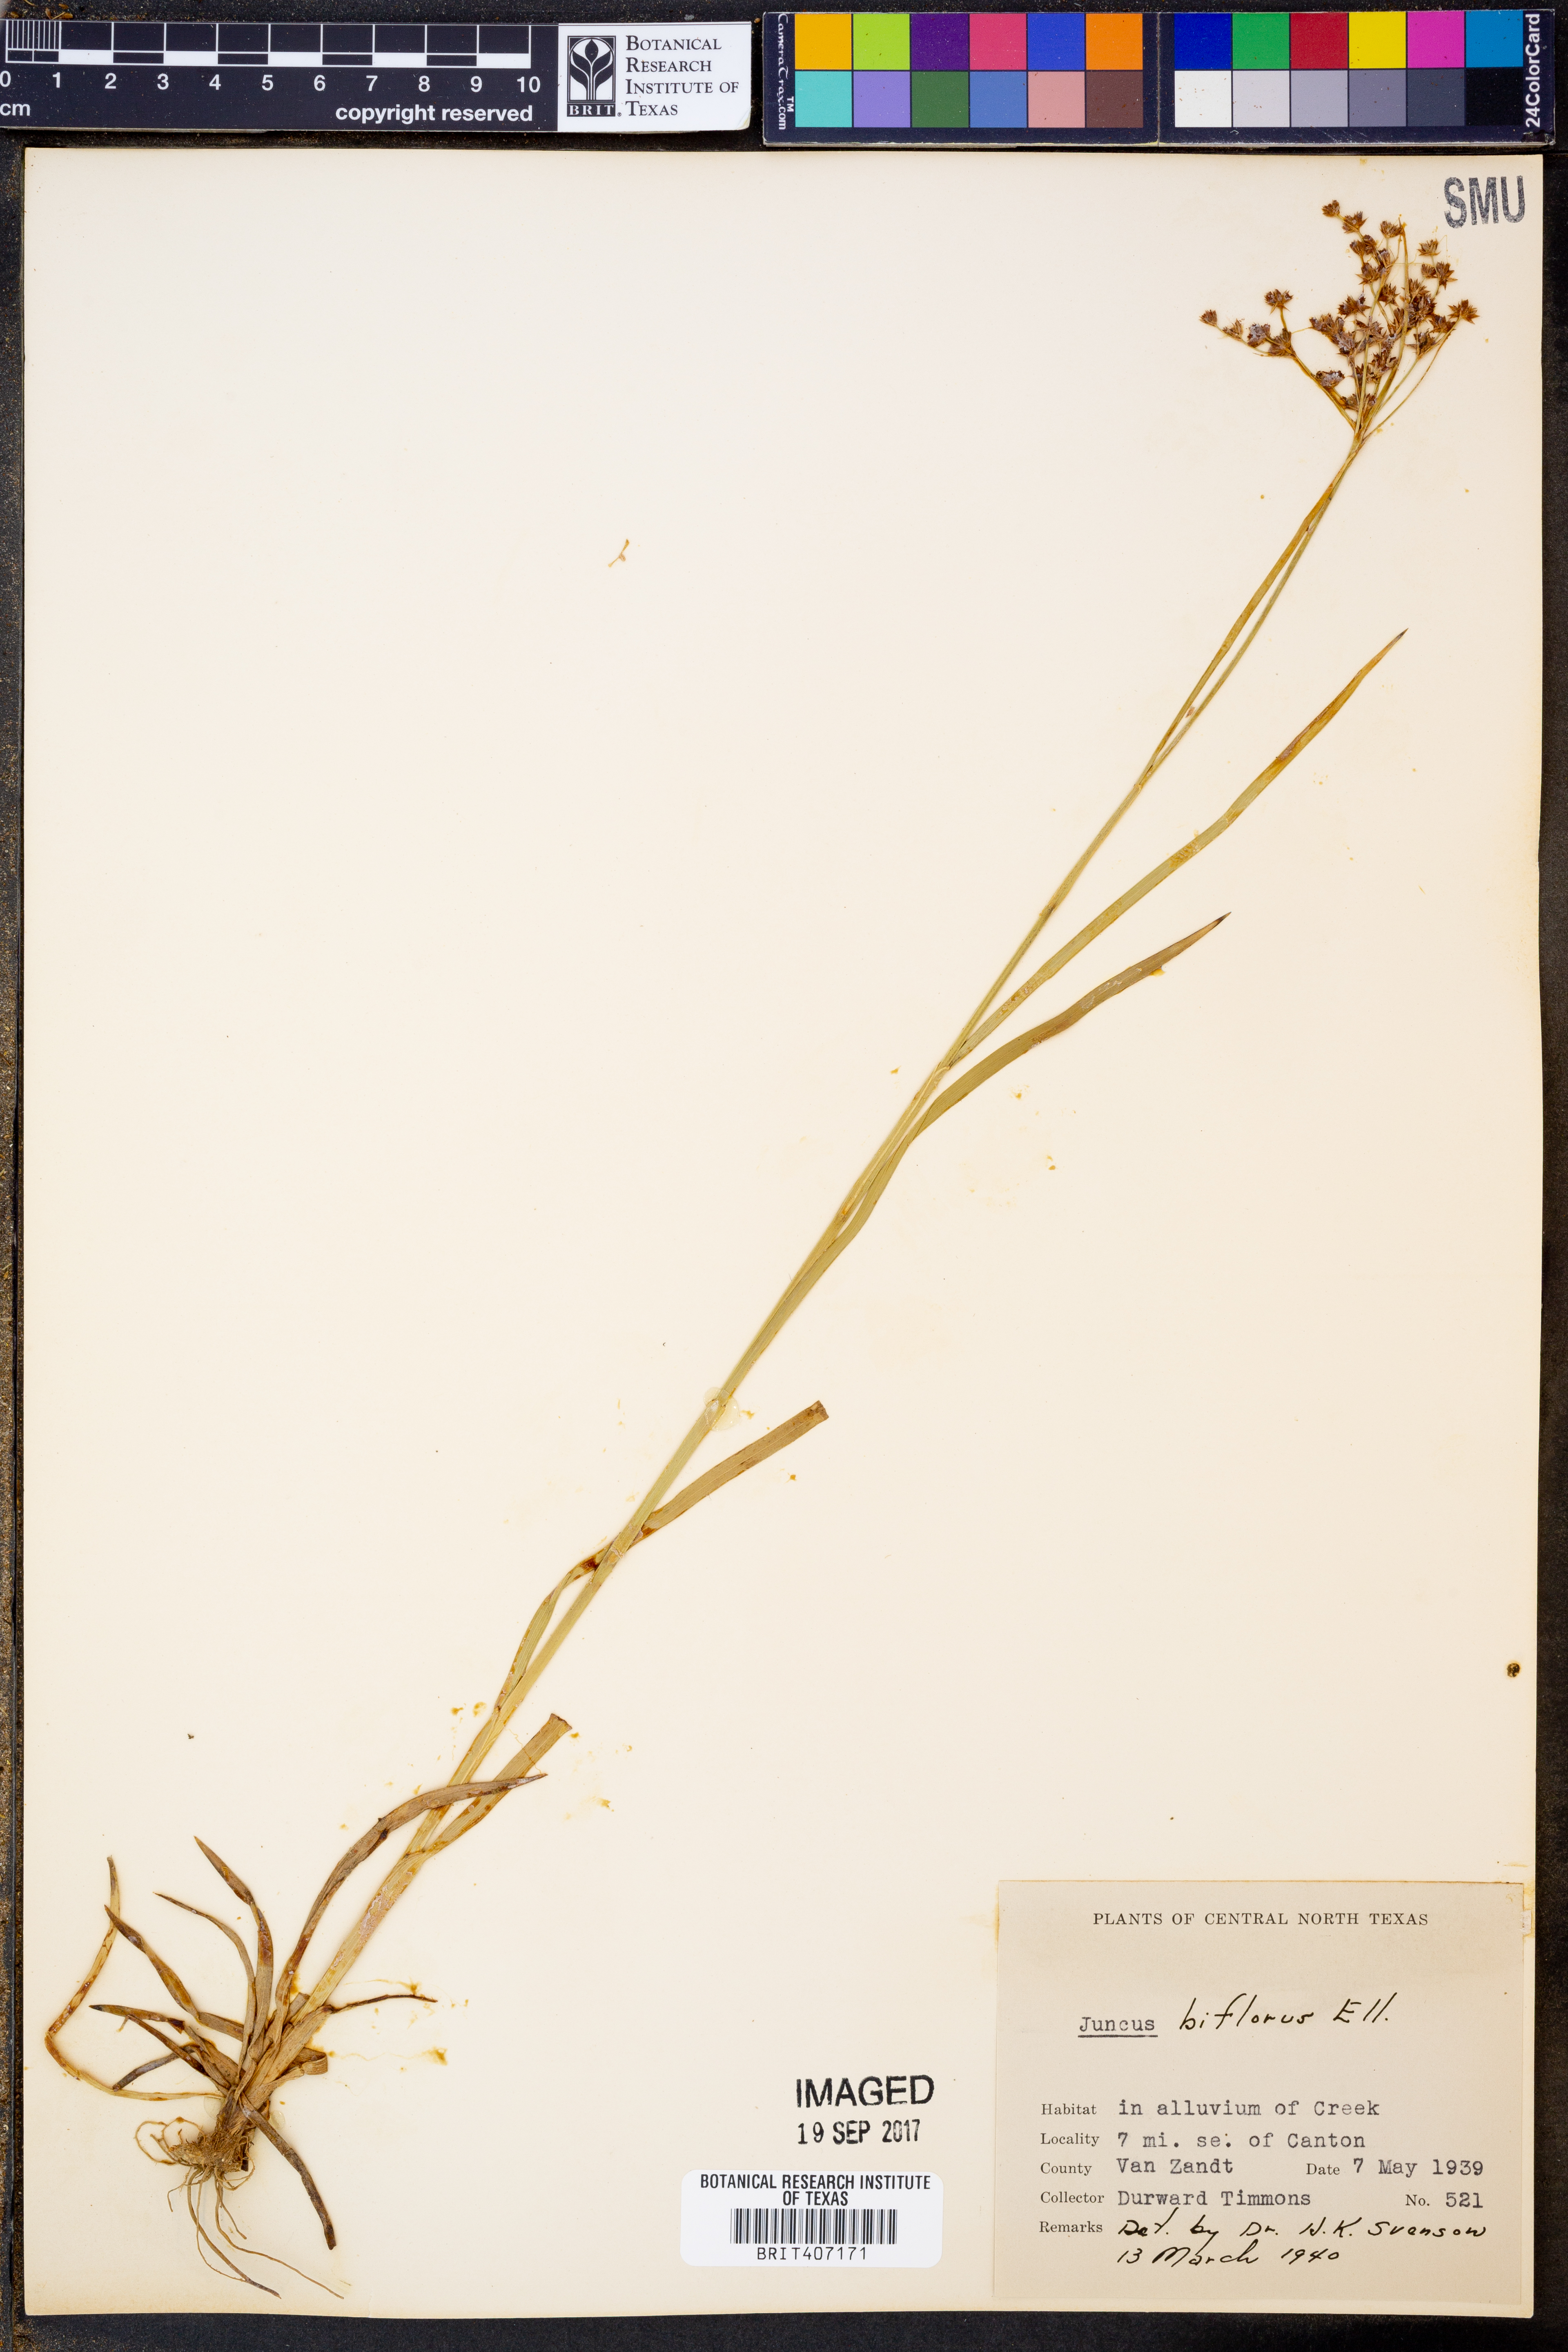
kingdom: Plantae
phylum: Tracheophyta
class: Liliopsida
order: Poales
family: Juncaceae
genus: Juncus
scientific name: Juncus biflorus
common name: Two-flowered rush
